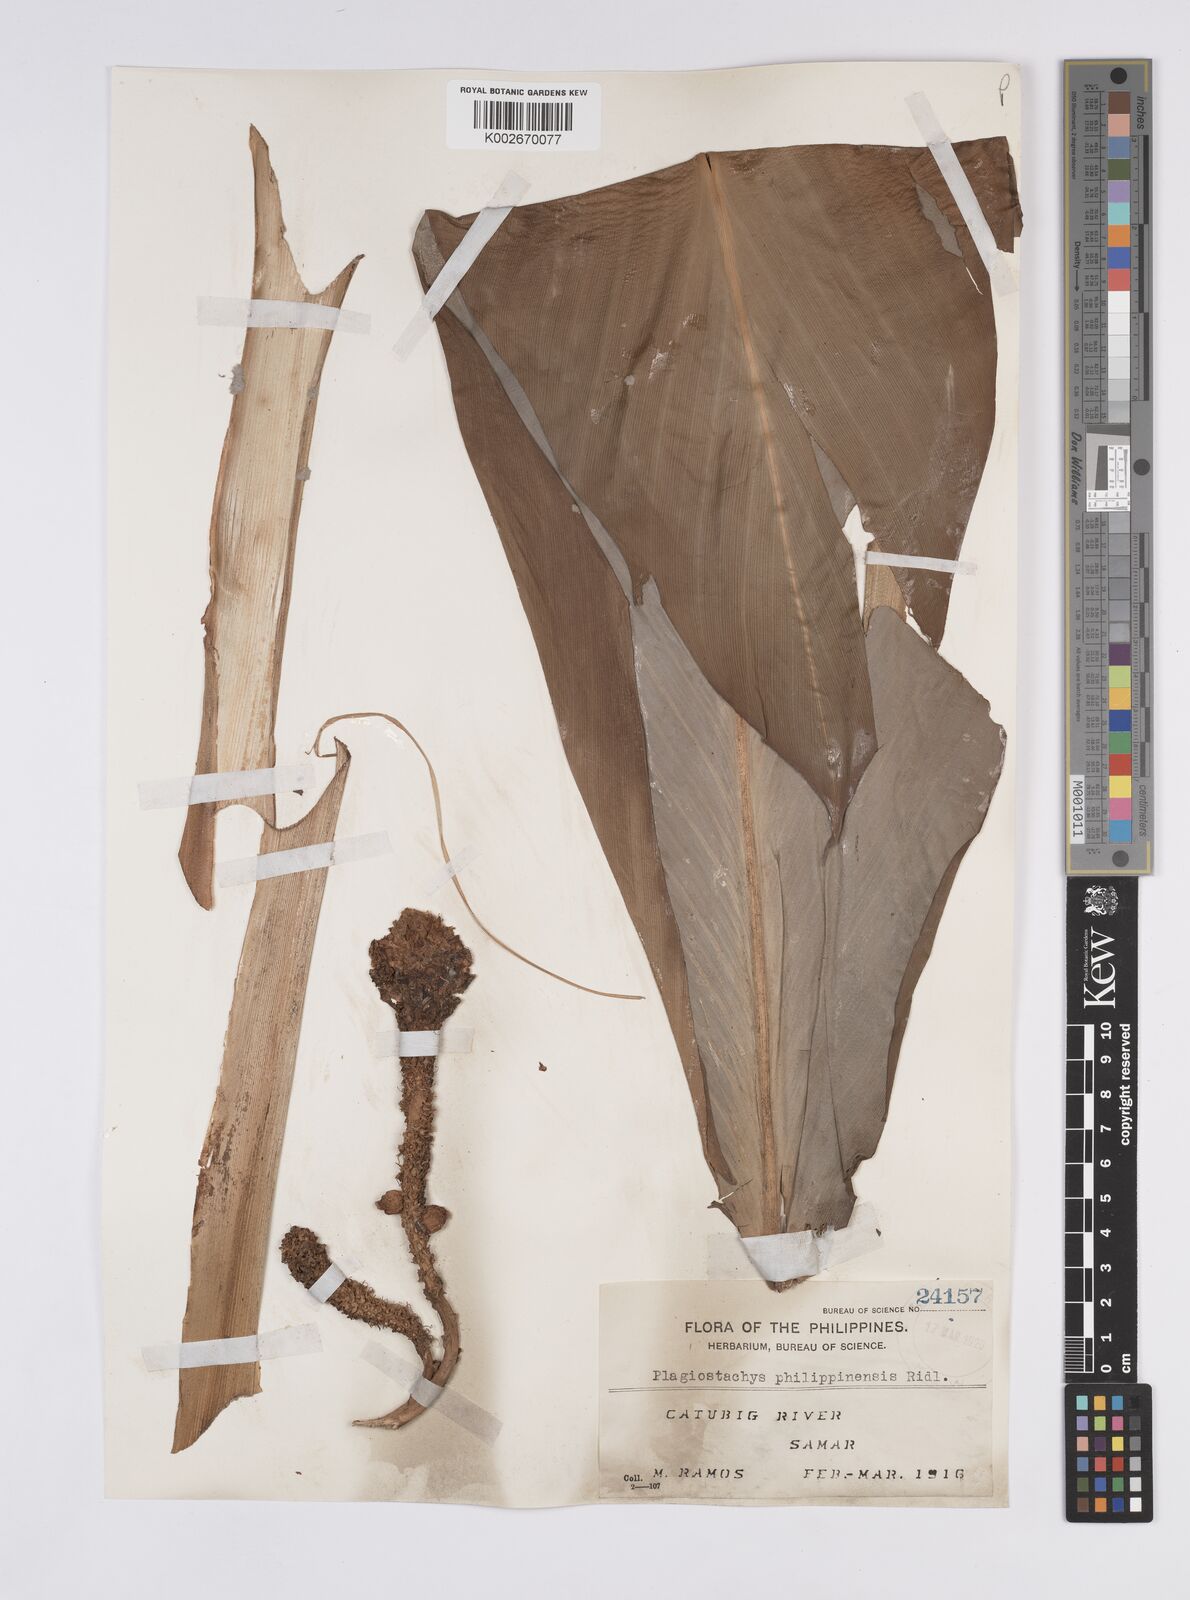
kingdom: Plantae
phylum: Tracheophyta
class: Liliopsida
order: Zingiberales
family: Zingiberaceae
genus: Plagiostachys
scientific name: Plagiostachys philippinensis
